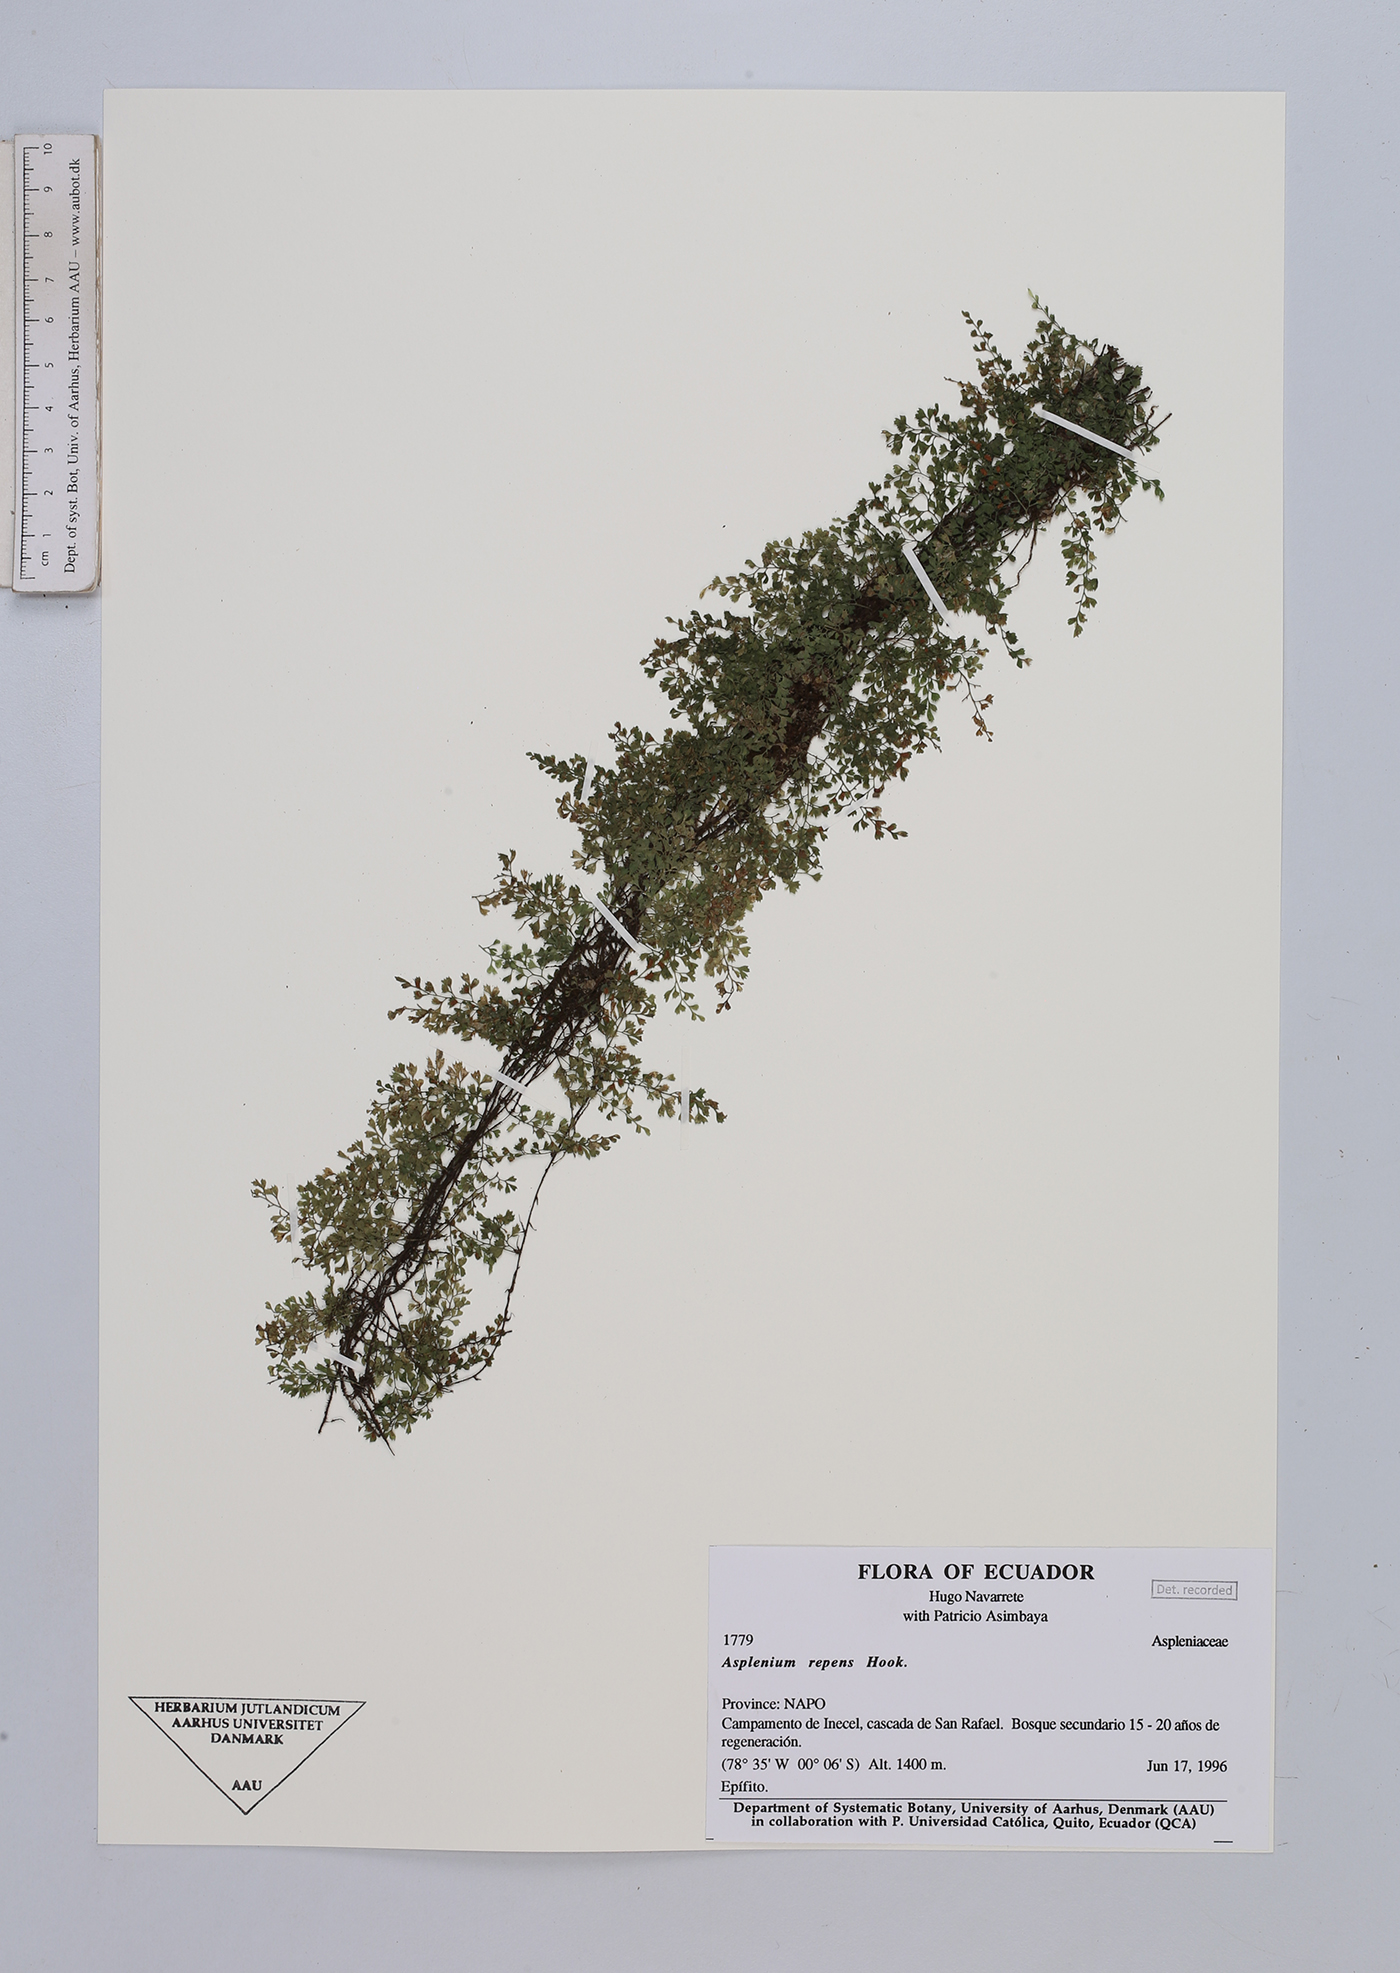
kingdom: Plantae
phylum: Tracheophyta
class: Polypodiopsida
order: Polypodiales
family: Aspleniaceae
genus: Asplenium
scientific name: Asplenium
